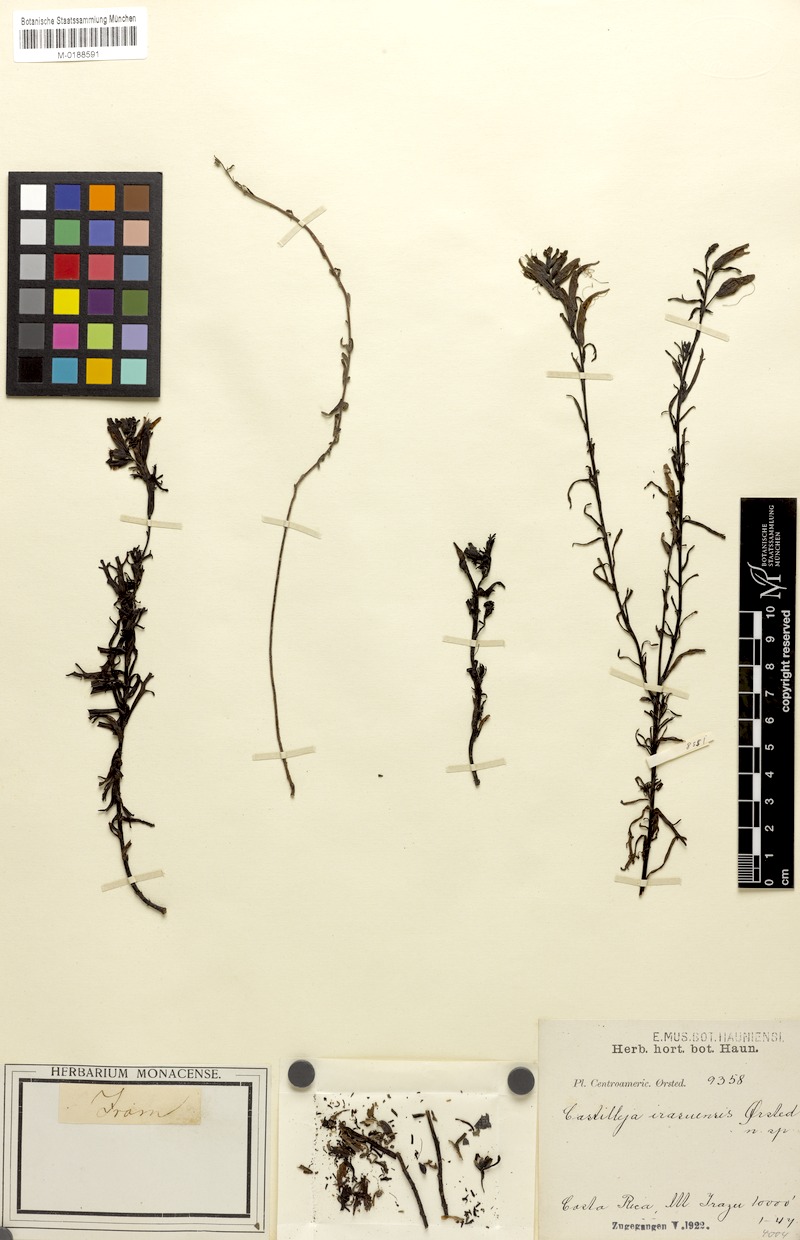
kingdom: Plantae
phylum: Tracheophyta
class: Magnoliopsida
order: Lamiales
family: Orobanchaceae
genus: Castilleja
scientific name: Castilleja irasuensis
